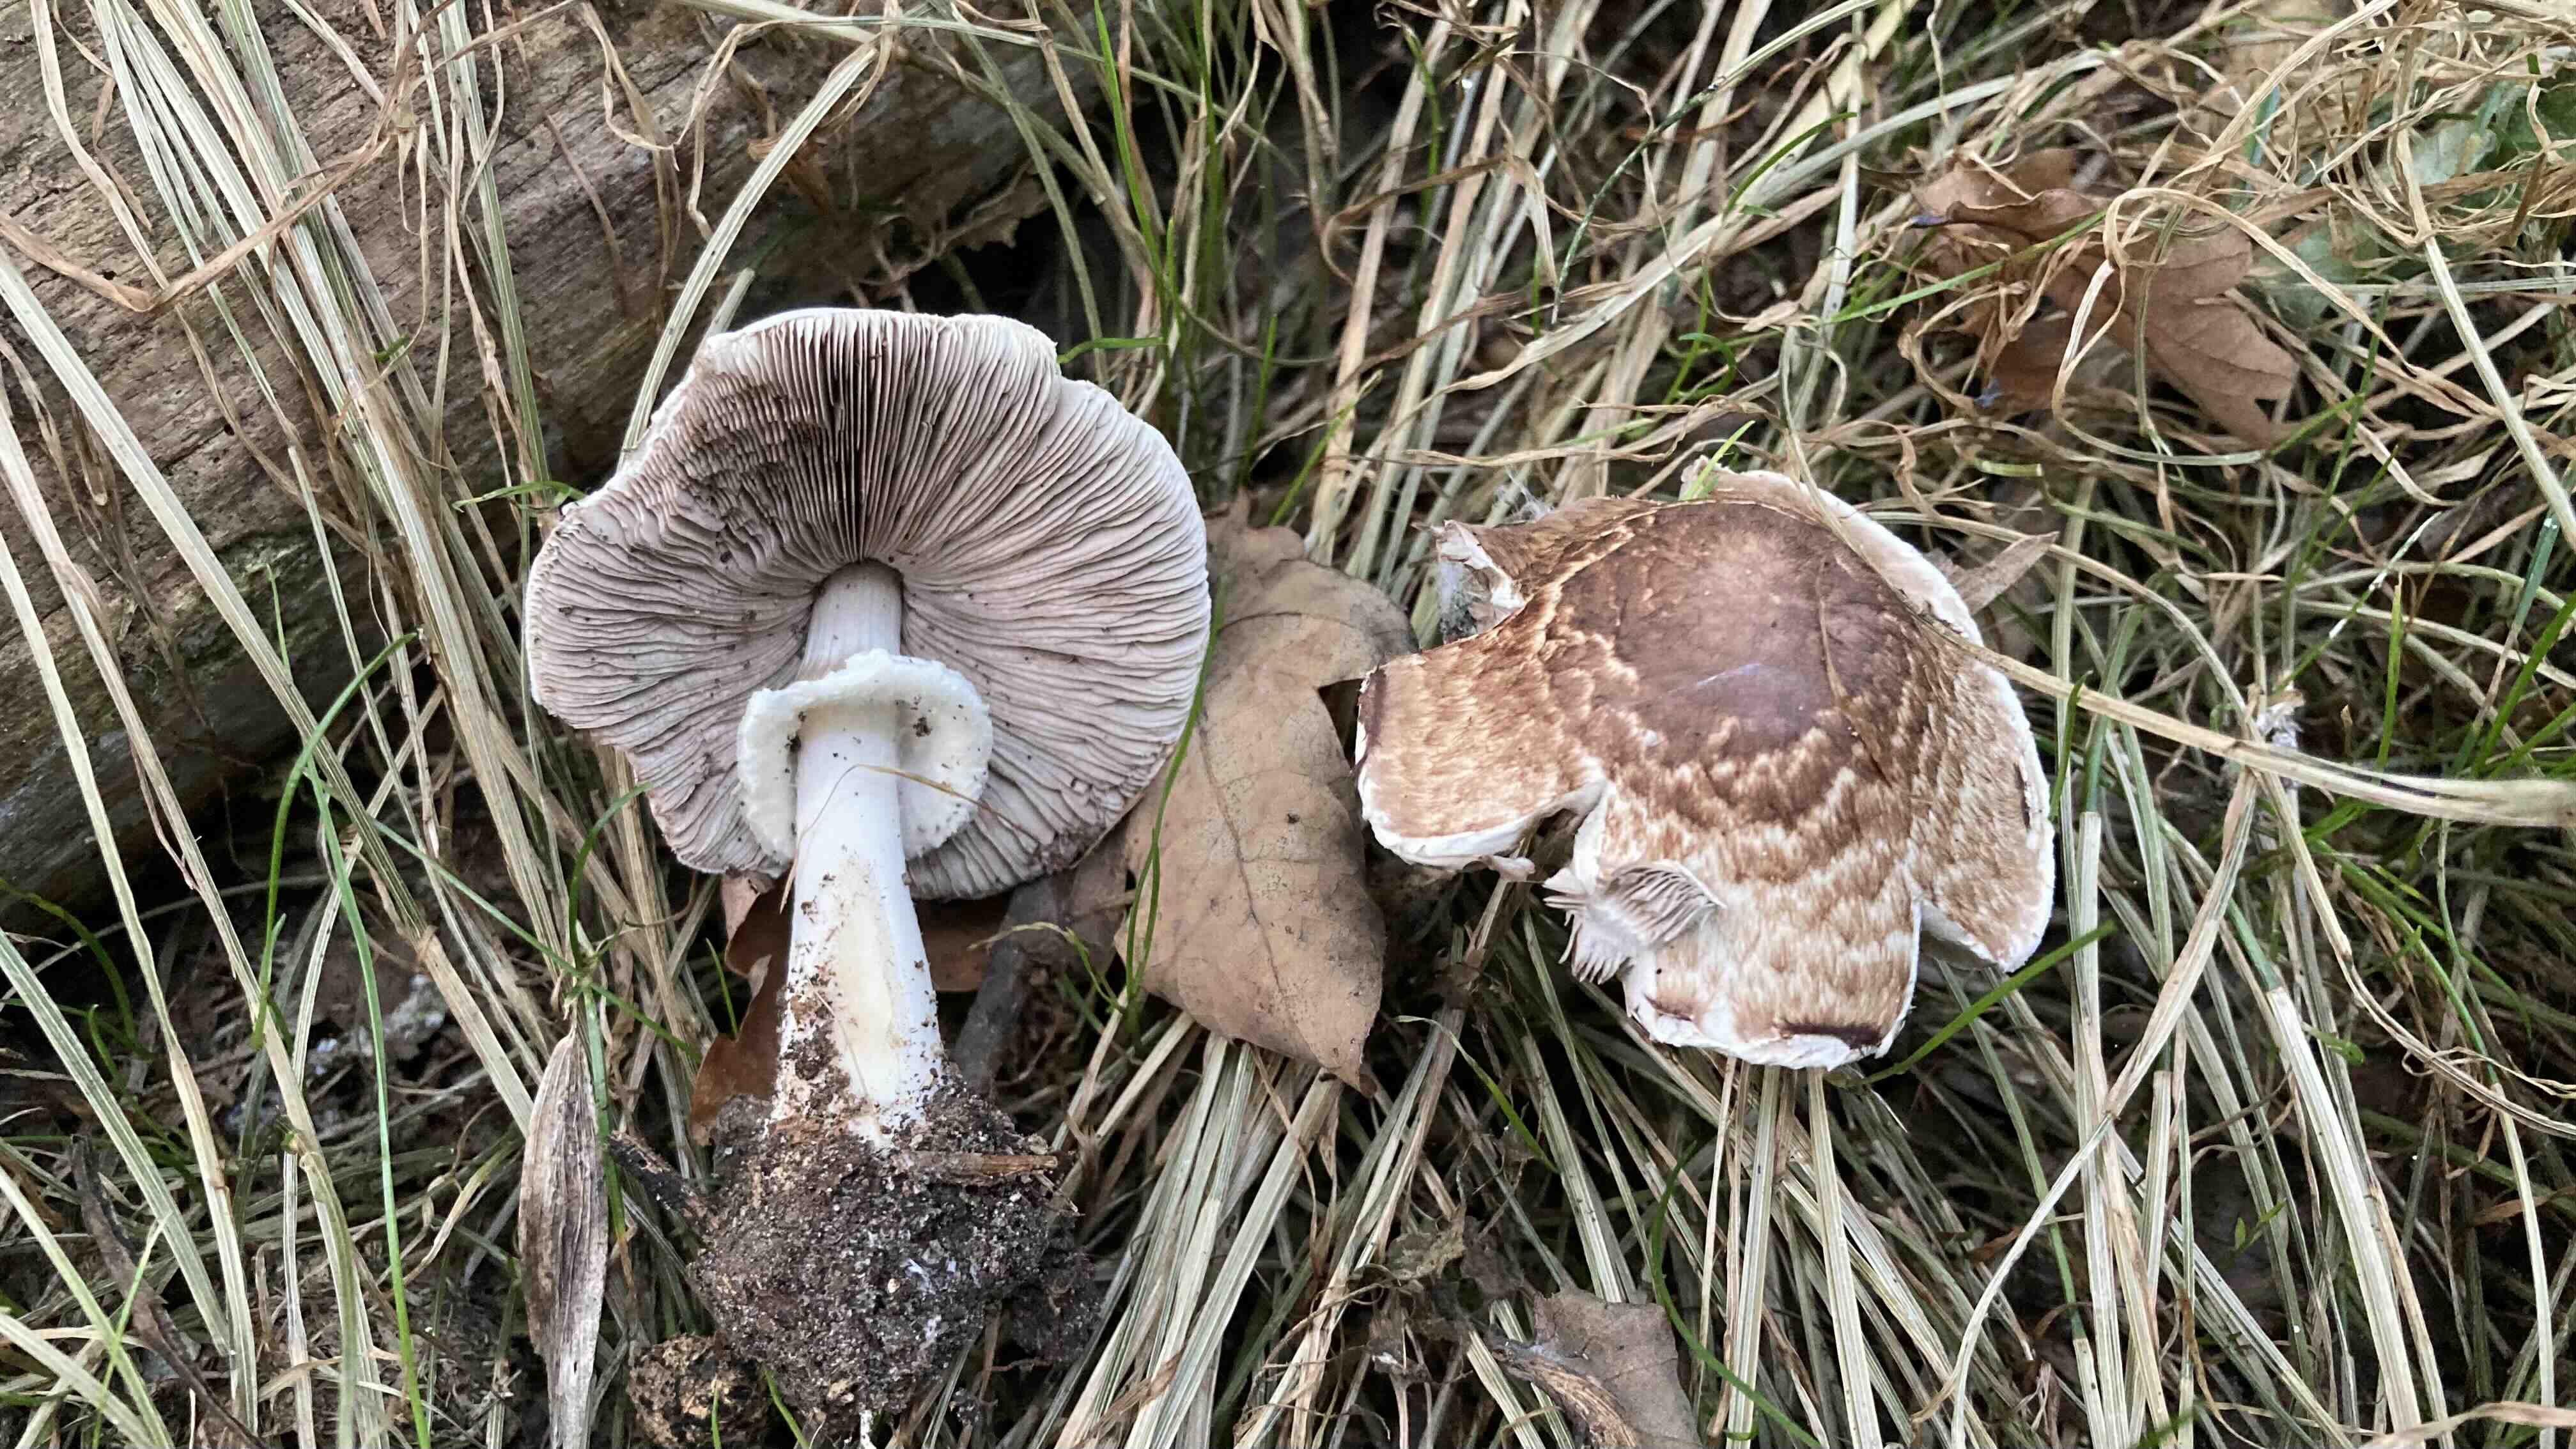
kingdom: Fungi
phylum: Basidiomycota
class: Agaricomycetes
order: Agaricales
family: Agaricaceae
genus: Agaricus
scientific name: Agaricus impudicus
